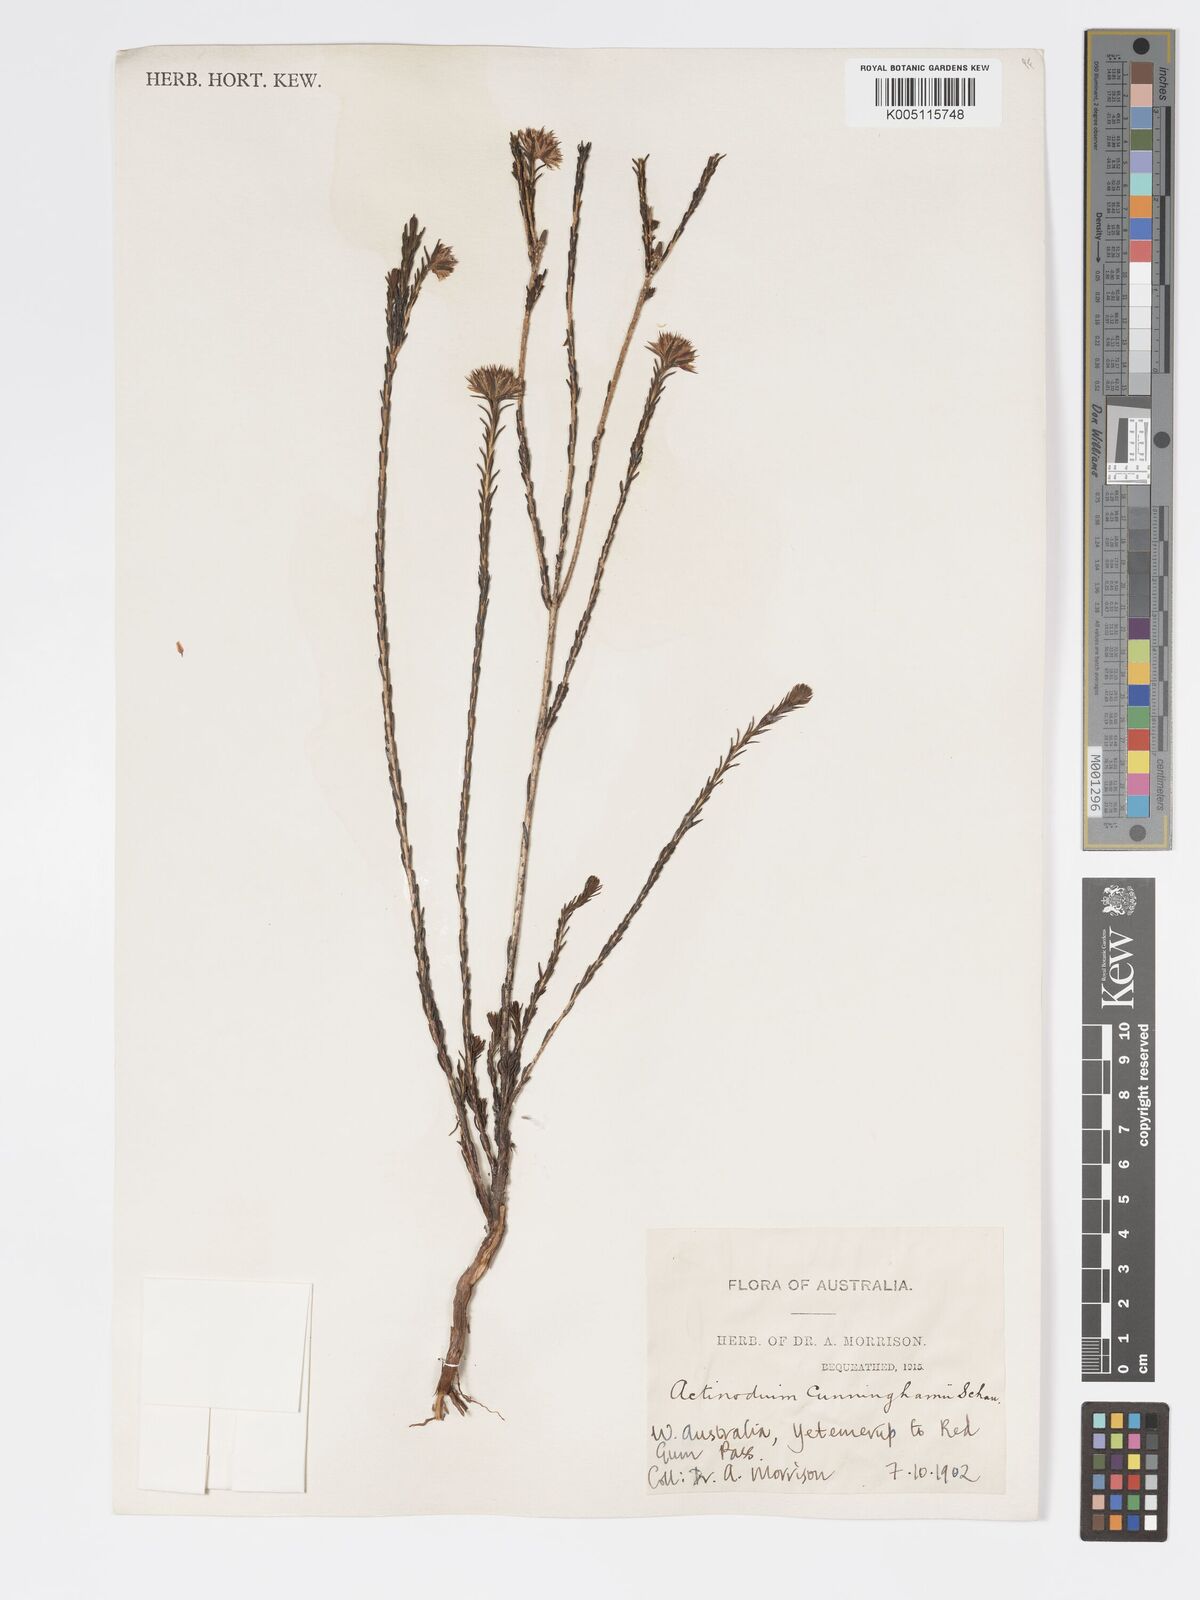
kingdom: Plantae
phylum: Tracheophyta
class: Magnoliopsida
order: Myrtales
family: Myrtaceae
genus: Actinodium
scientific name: Actinodium cunninghamii
